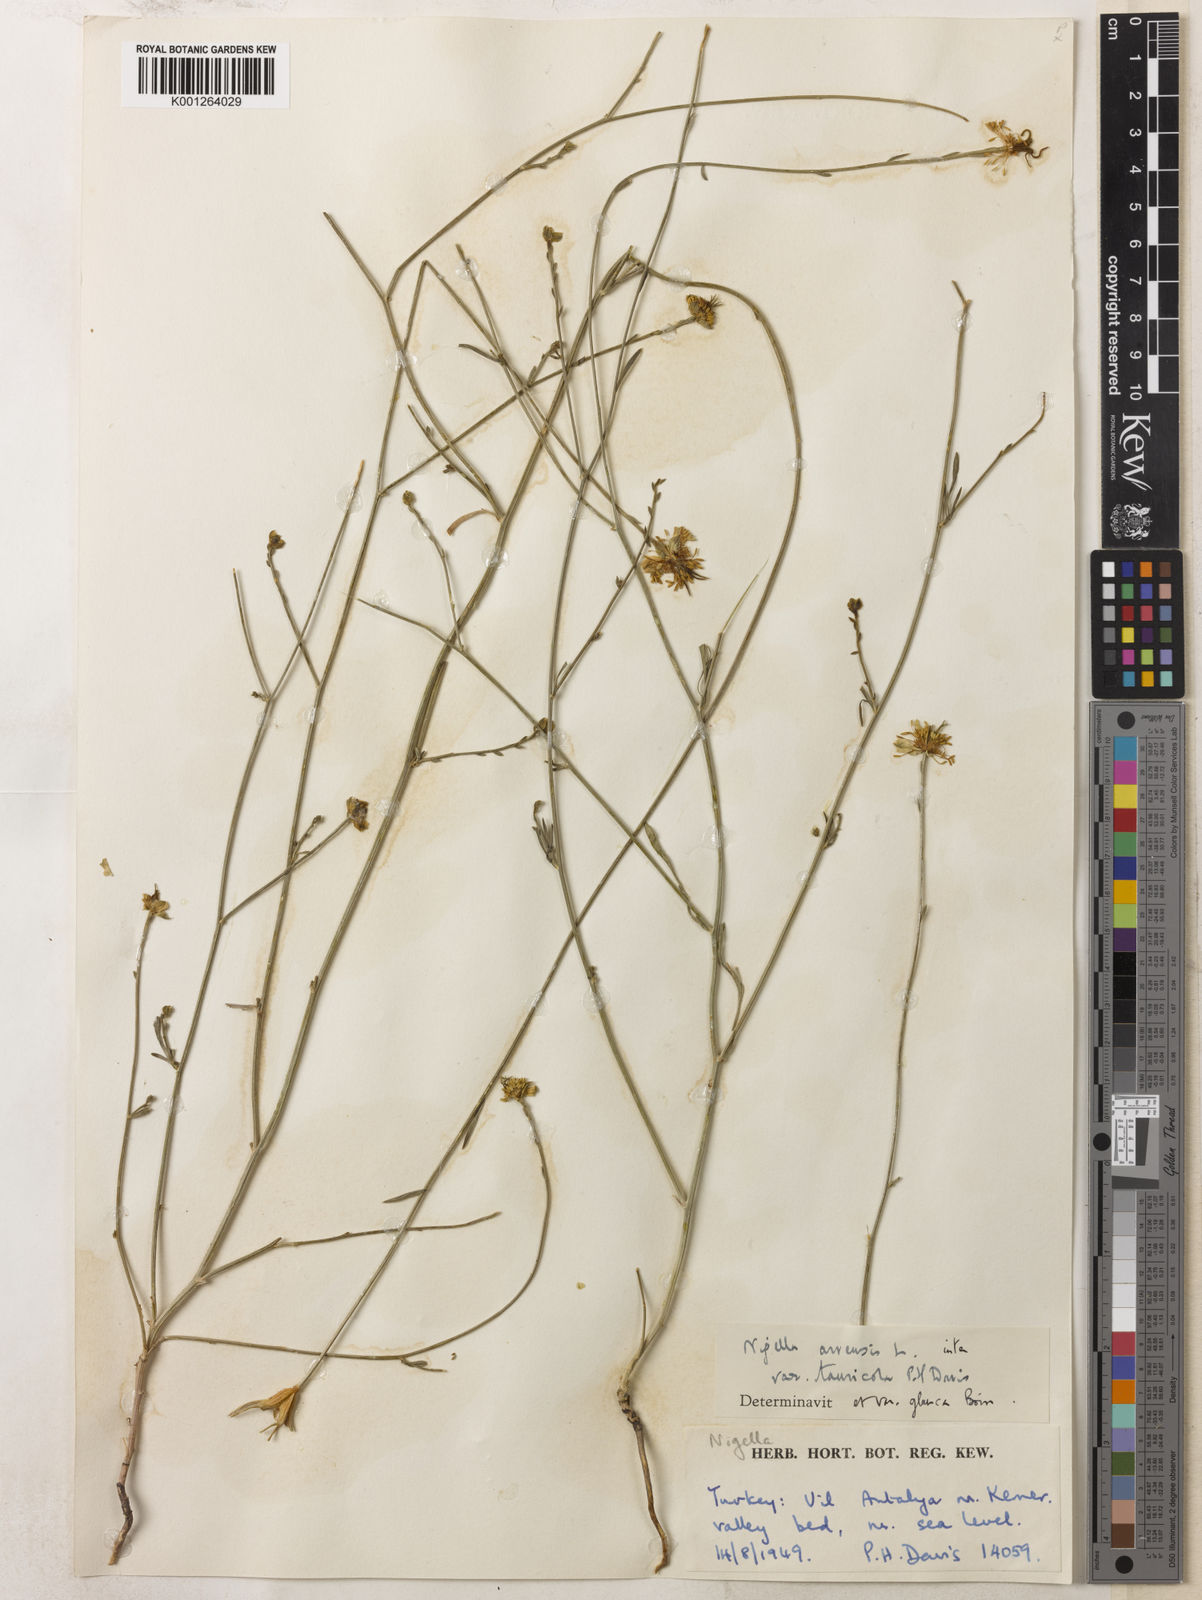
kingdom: Plantae
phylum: Tracheophyta
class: Magnoliopsida
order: Ranunculales
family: Ranunculaceae
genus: Nigella
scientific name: Nigella arvensis
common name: Wild fennel-flower
